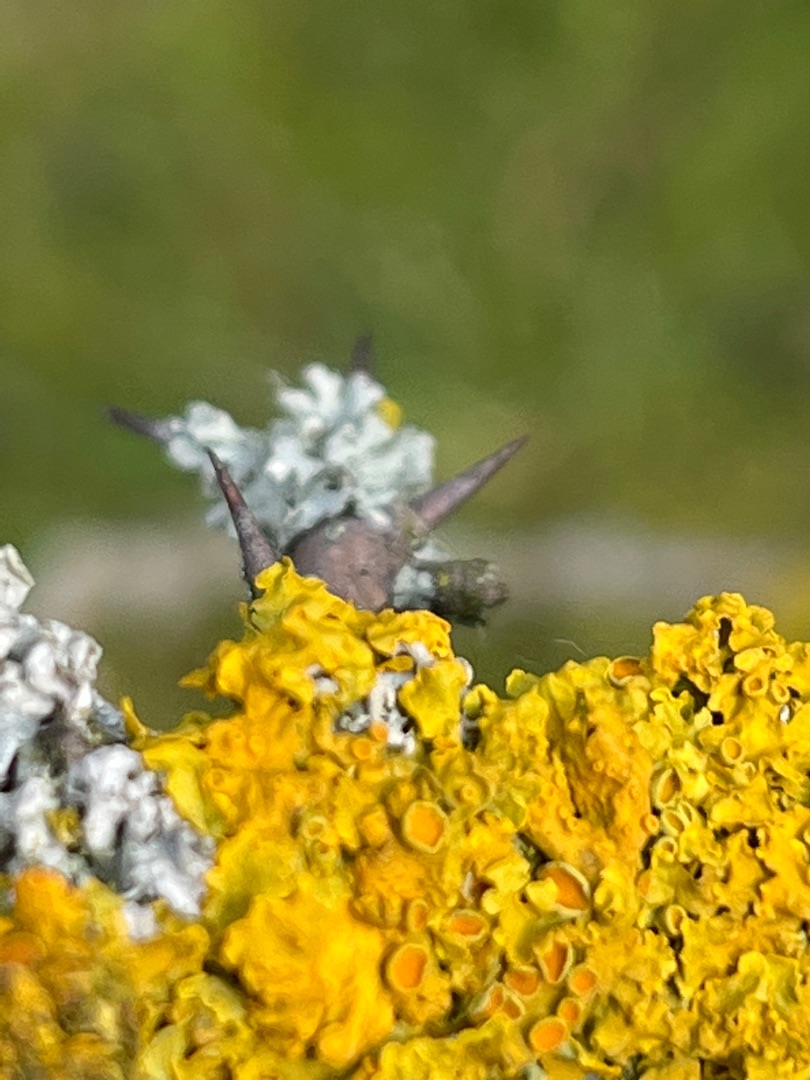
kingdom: Fungi
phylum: Ascomycota
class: Lecanoromycetes
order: Teloschistales
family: Teloschistaceae
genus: Xanthoria
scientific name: Xanthoria parietina
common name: Almindelig væggelav
